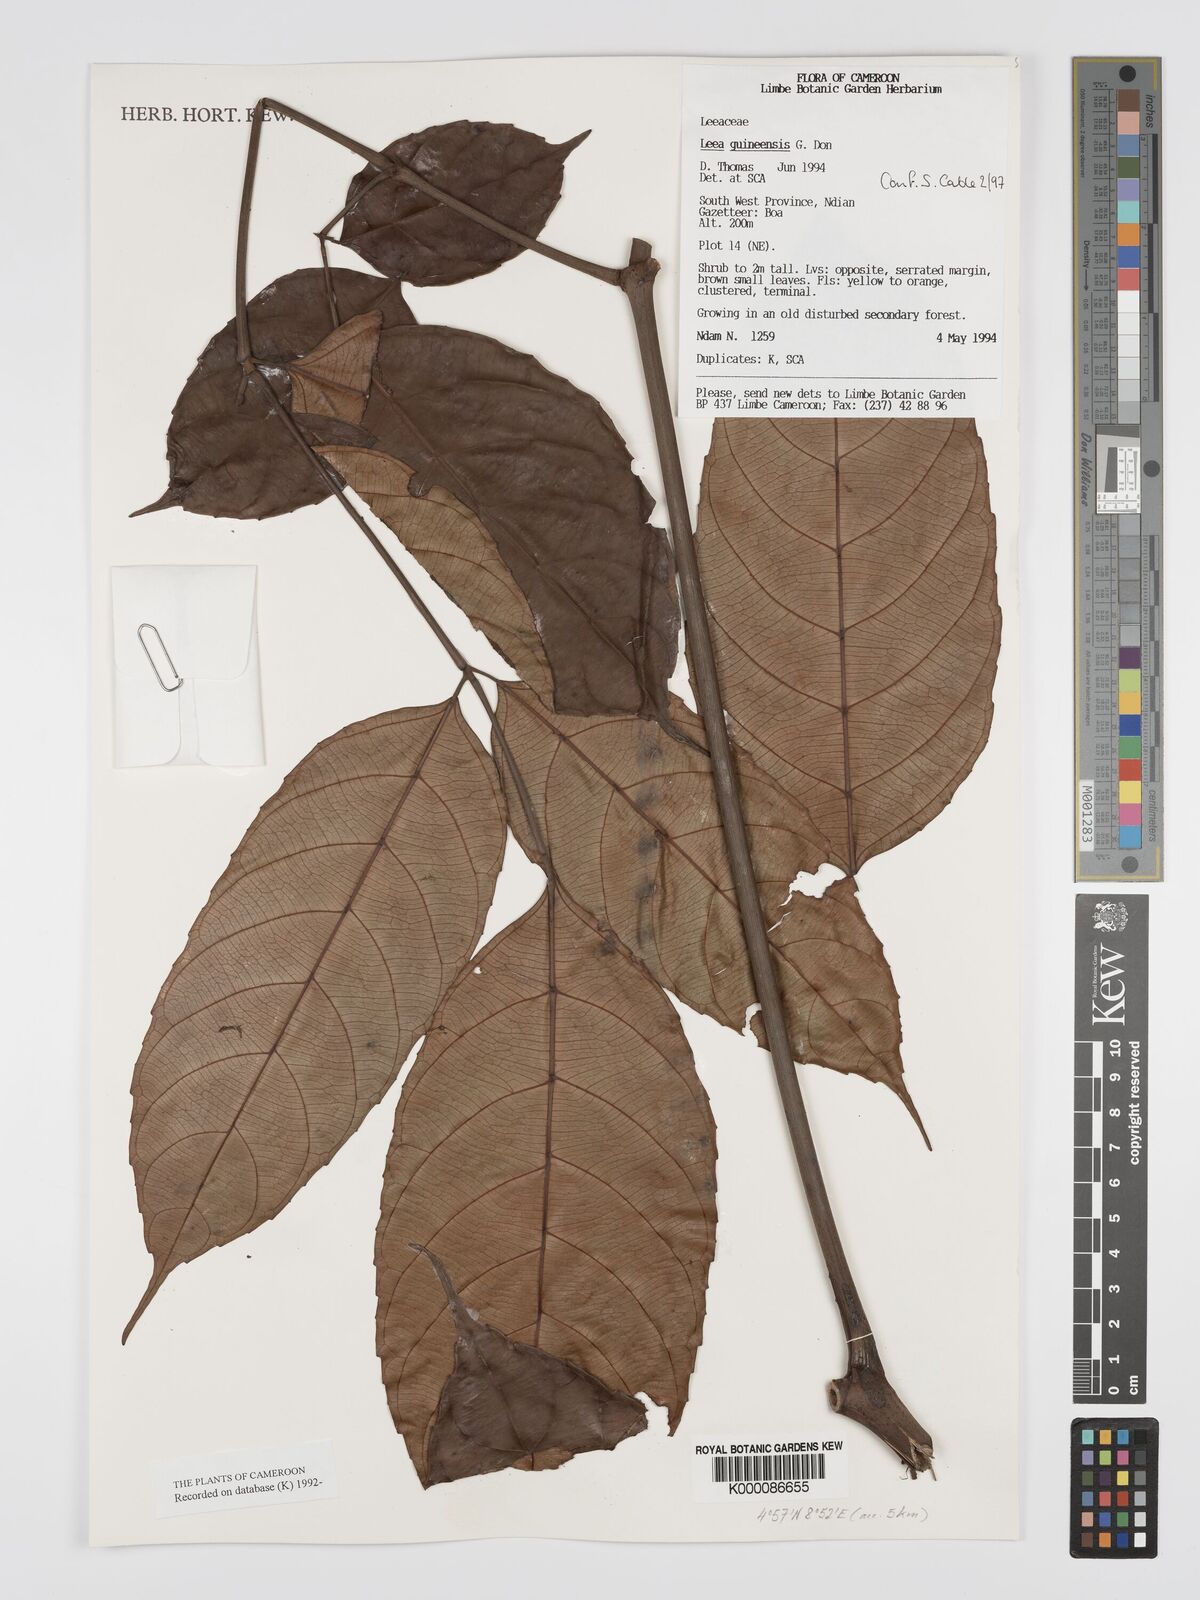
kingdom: Plantae
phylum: Tracheophyta
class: Magnoliopsida
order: Vitales
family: Vitaceae
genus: Leea
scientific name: Leea guineensis
